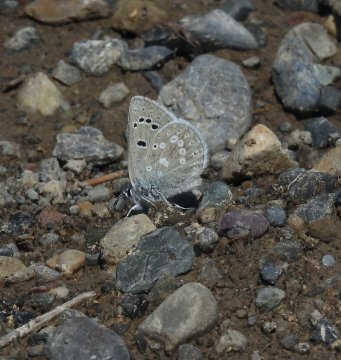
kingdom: Animalia
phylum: Arthropoda
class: Insecta
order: Lepidoptera
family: Lycaenidae
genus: Icaricia
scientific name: Icaricia icarioides
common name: Boisduval's Blue
